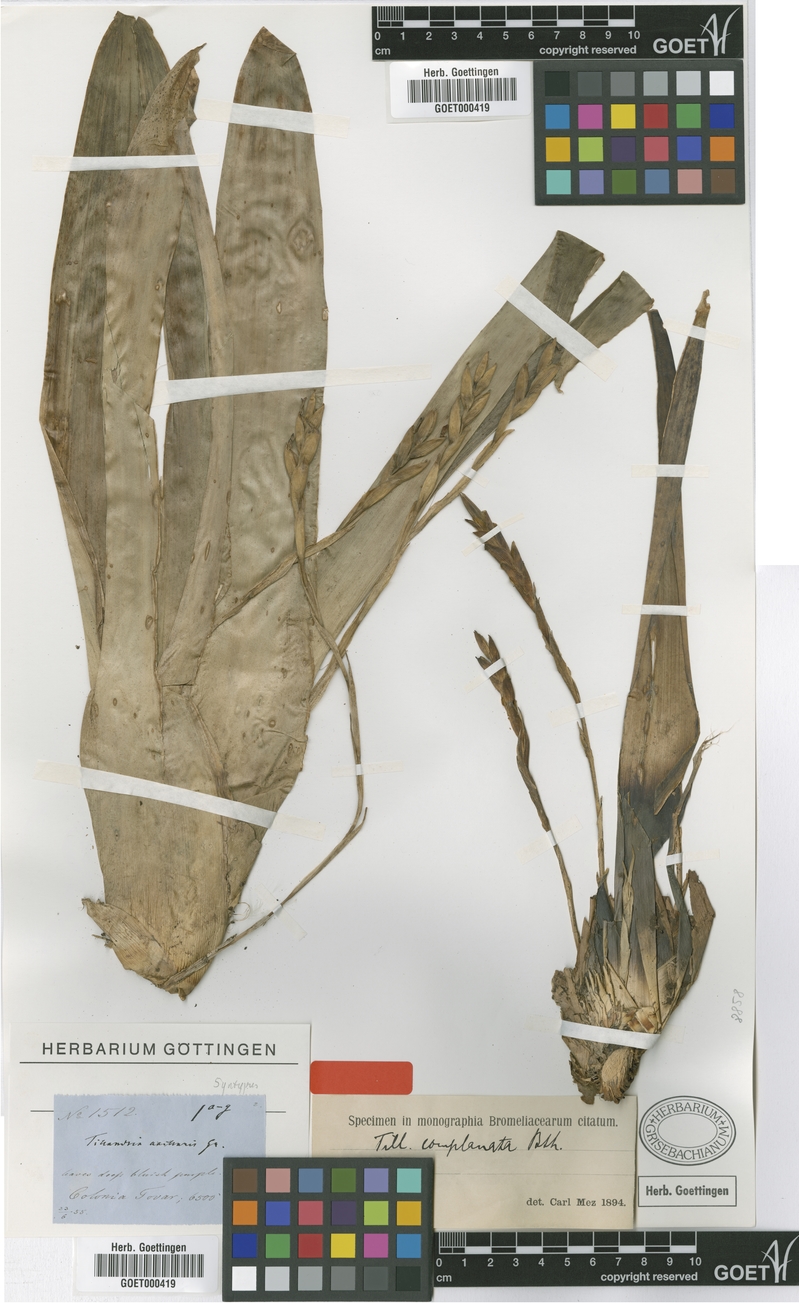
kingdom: Plantae
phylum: Tracheophyta
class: Liliopsida
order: Poales
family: Bromeliaceae
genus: Tillandsia
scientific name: Tillandsia complanata
